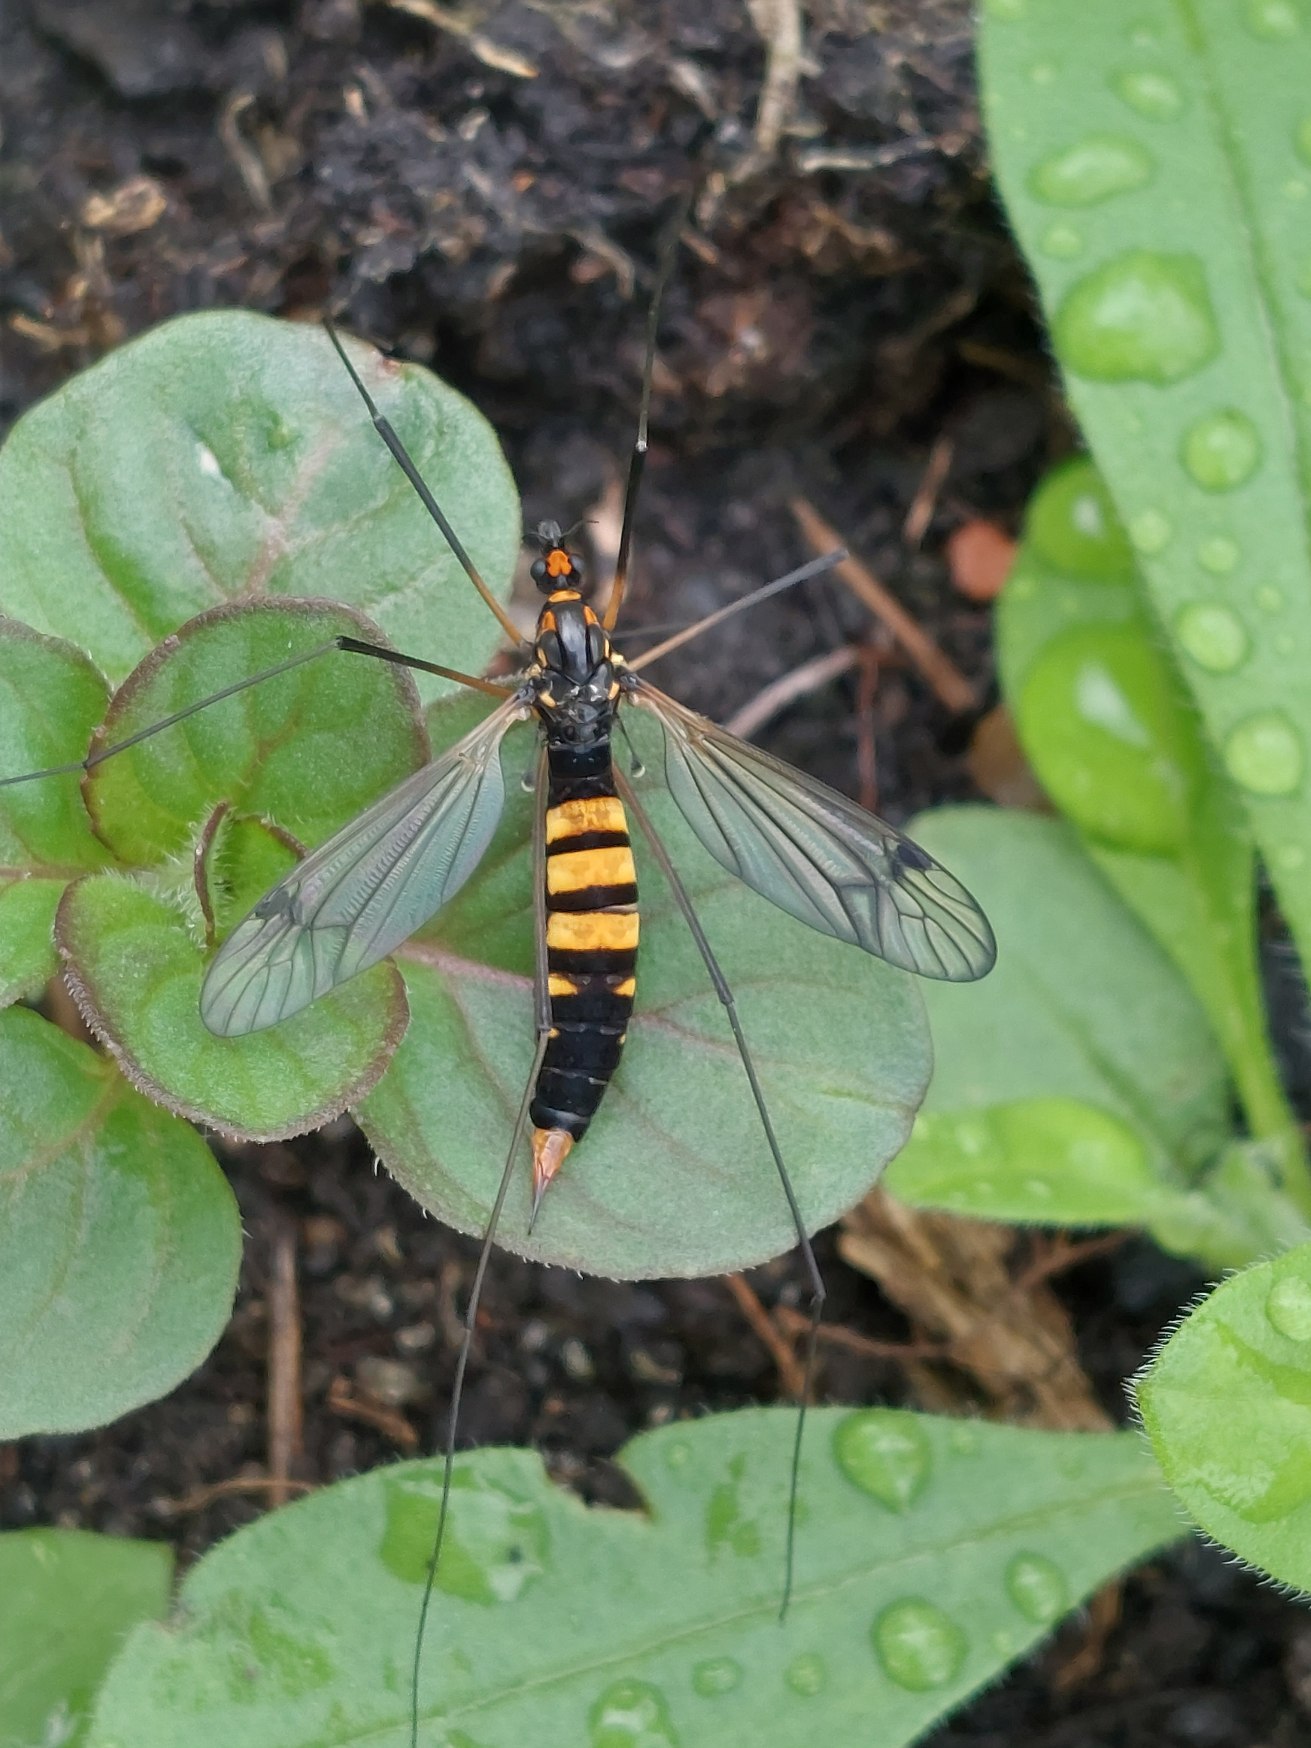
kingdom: Animalia
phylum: Arthropoda
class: Insecta
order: Diptera
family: Tipulidae
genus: Nephrotoma
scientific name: Nephrotoma crocata
